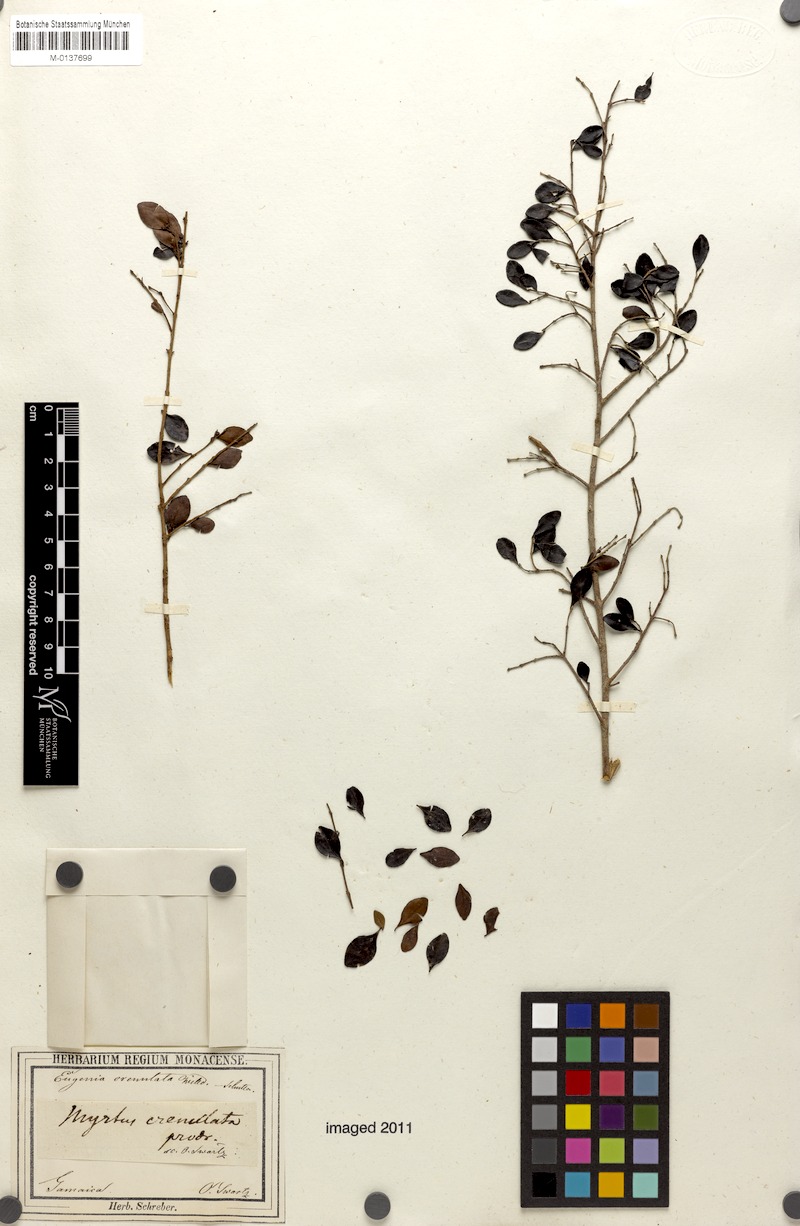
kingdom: Plantae
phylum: Tracheophyta
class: Magnoliopsida
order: Myrtales
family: Myrtaceae
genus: Eugenia
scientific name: Eugenia crenulata
